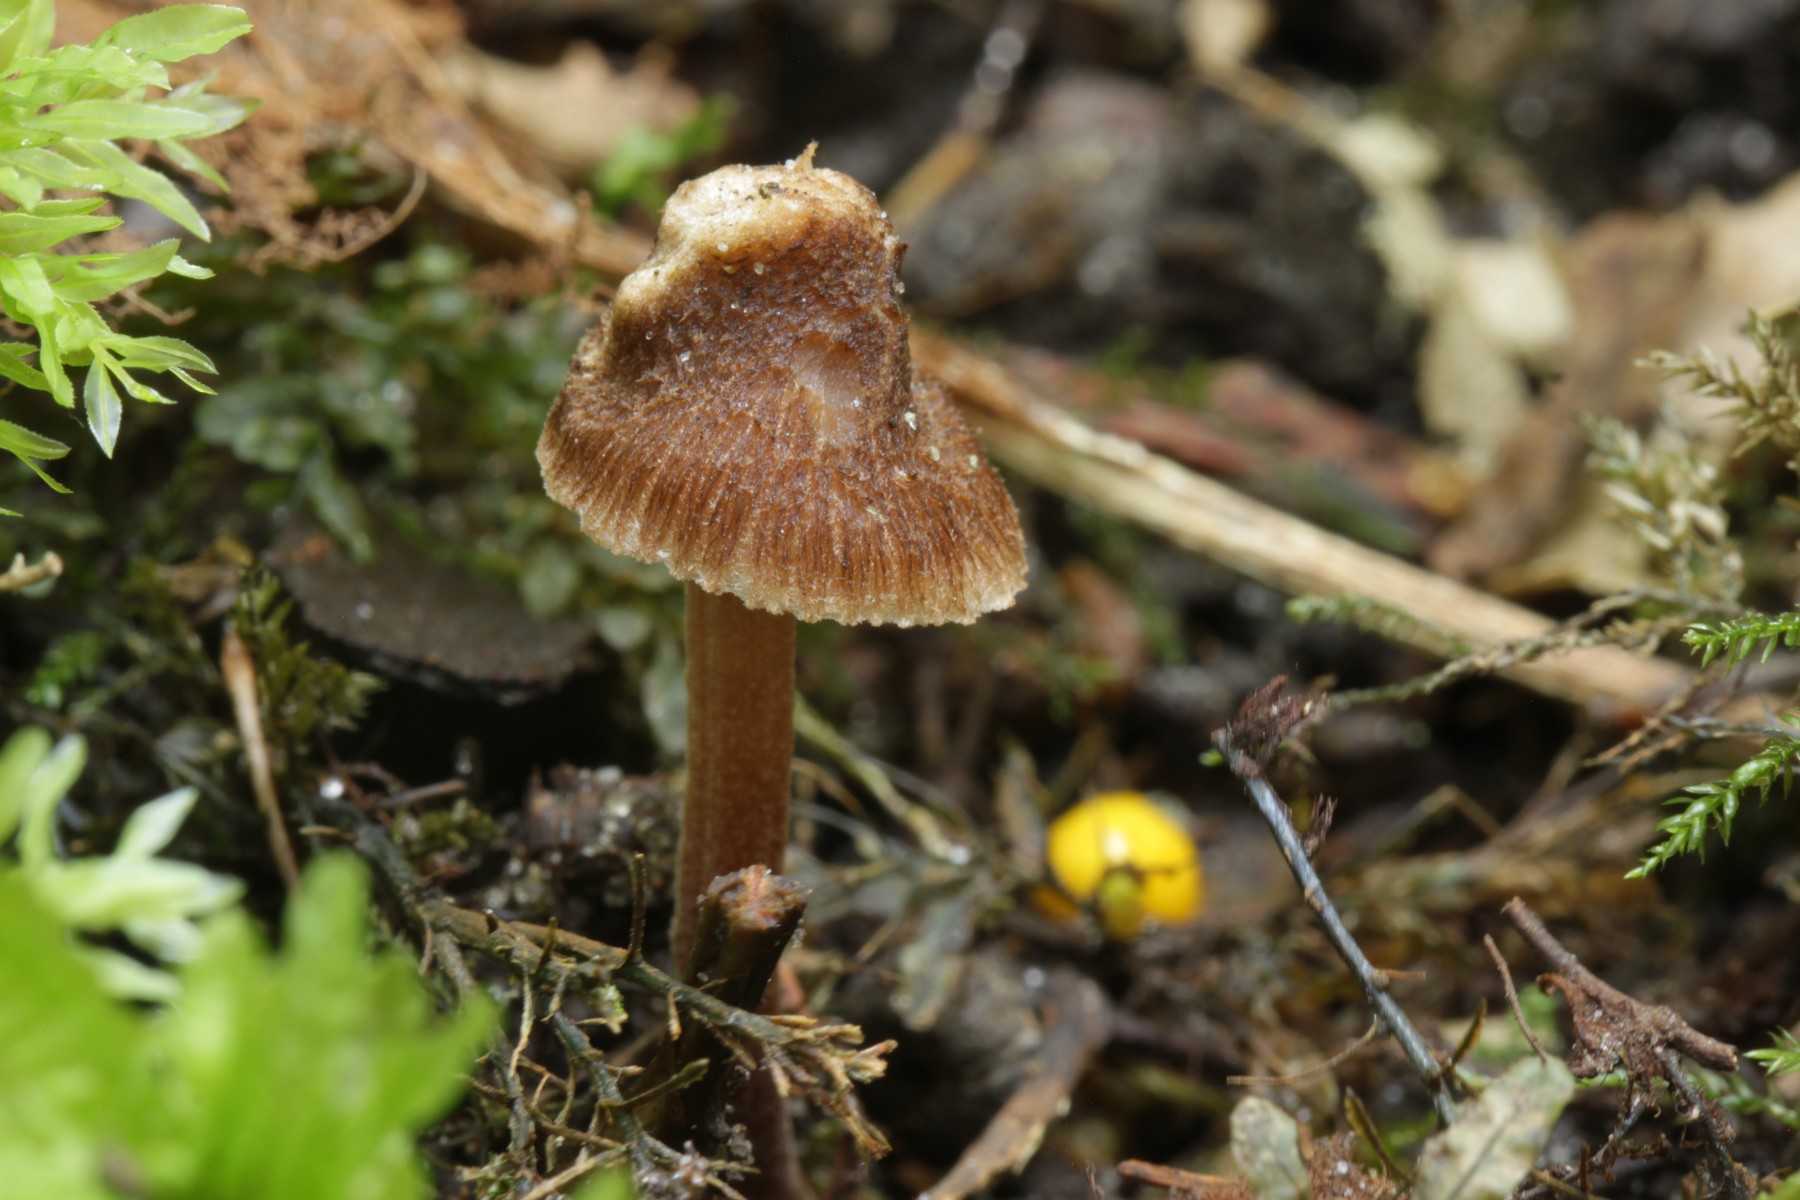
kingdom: Fungi
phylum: Basidiomycota
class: Agaricomycetes
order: Agaricales
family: Inocybaceae
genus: Inocybe
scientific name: Inocybe calospora
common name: pigsporet trævlhat
